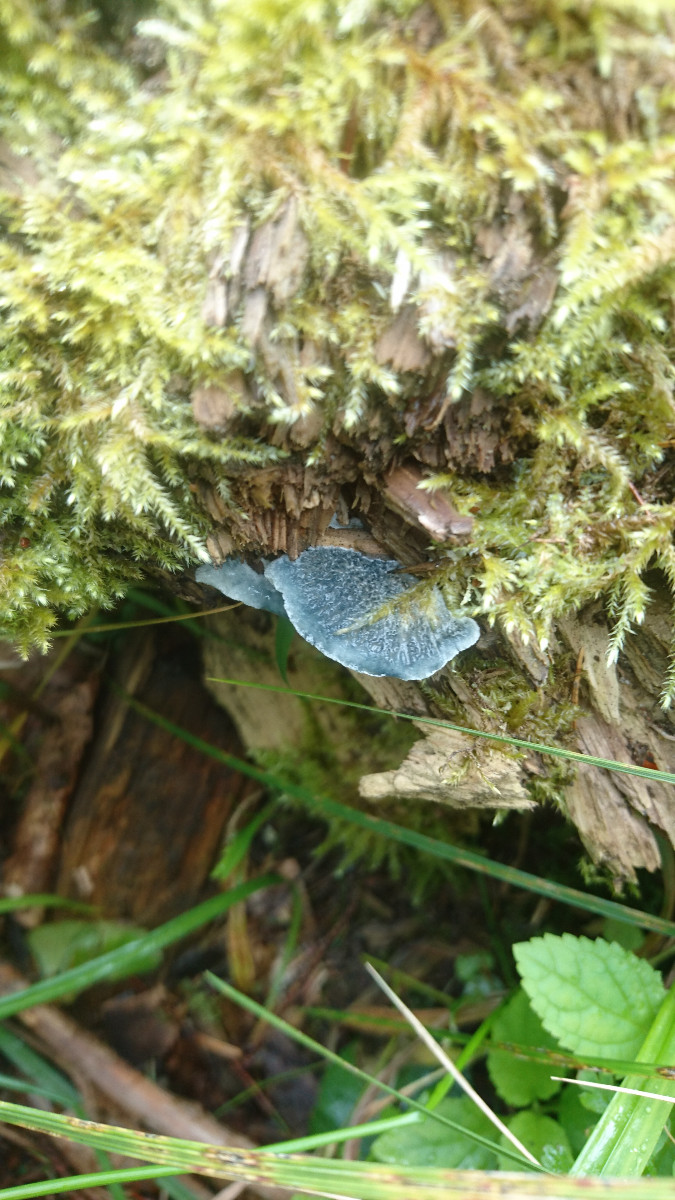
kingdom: Fungi
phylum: Basidiomycota
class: Agaricomycetes
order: Polyporales
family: Polyporaceae
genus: Cyanosporus
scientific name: Cyanosporus caesius
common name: blålig kødporesvamp
